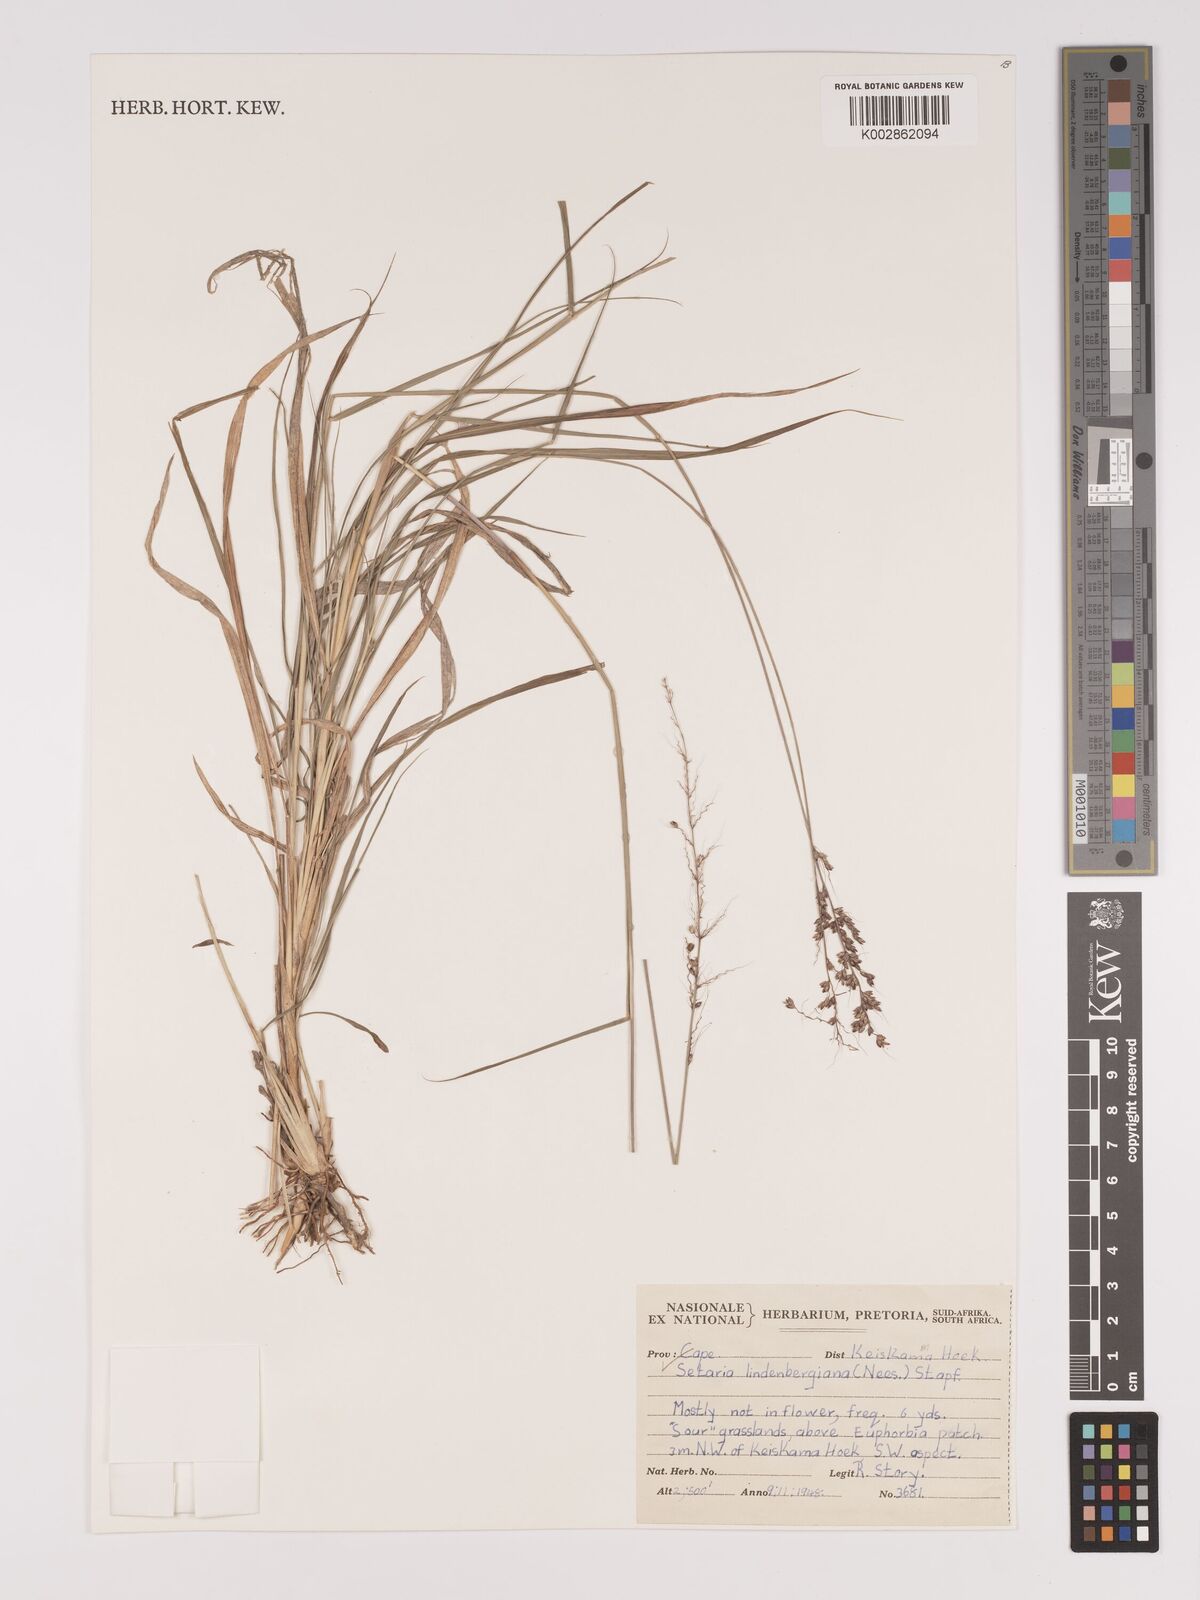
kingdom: Plantae
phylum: Tracheophyta
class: Liliopsida
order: Poales
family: Poaceae
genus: Setaria
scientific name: Setaria lindenbergiana
